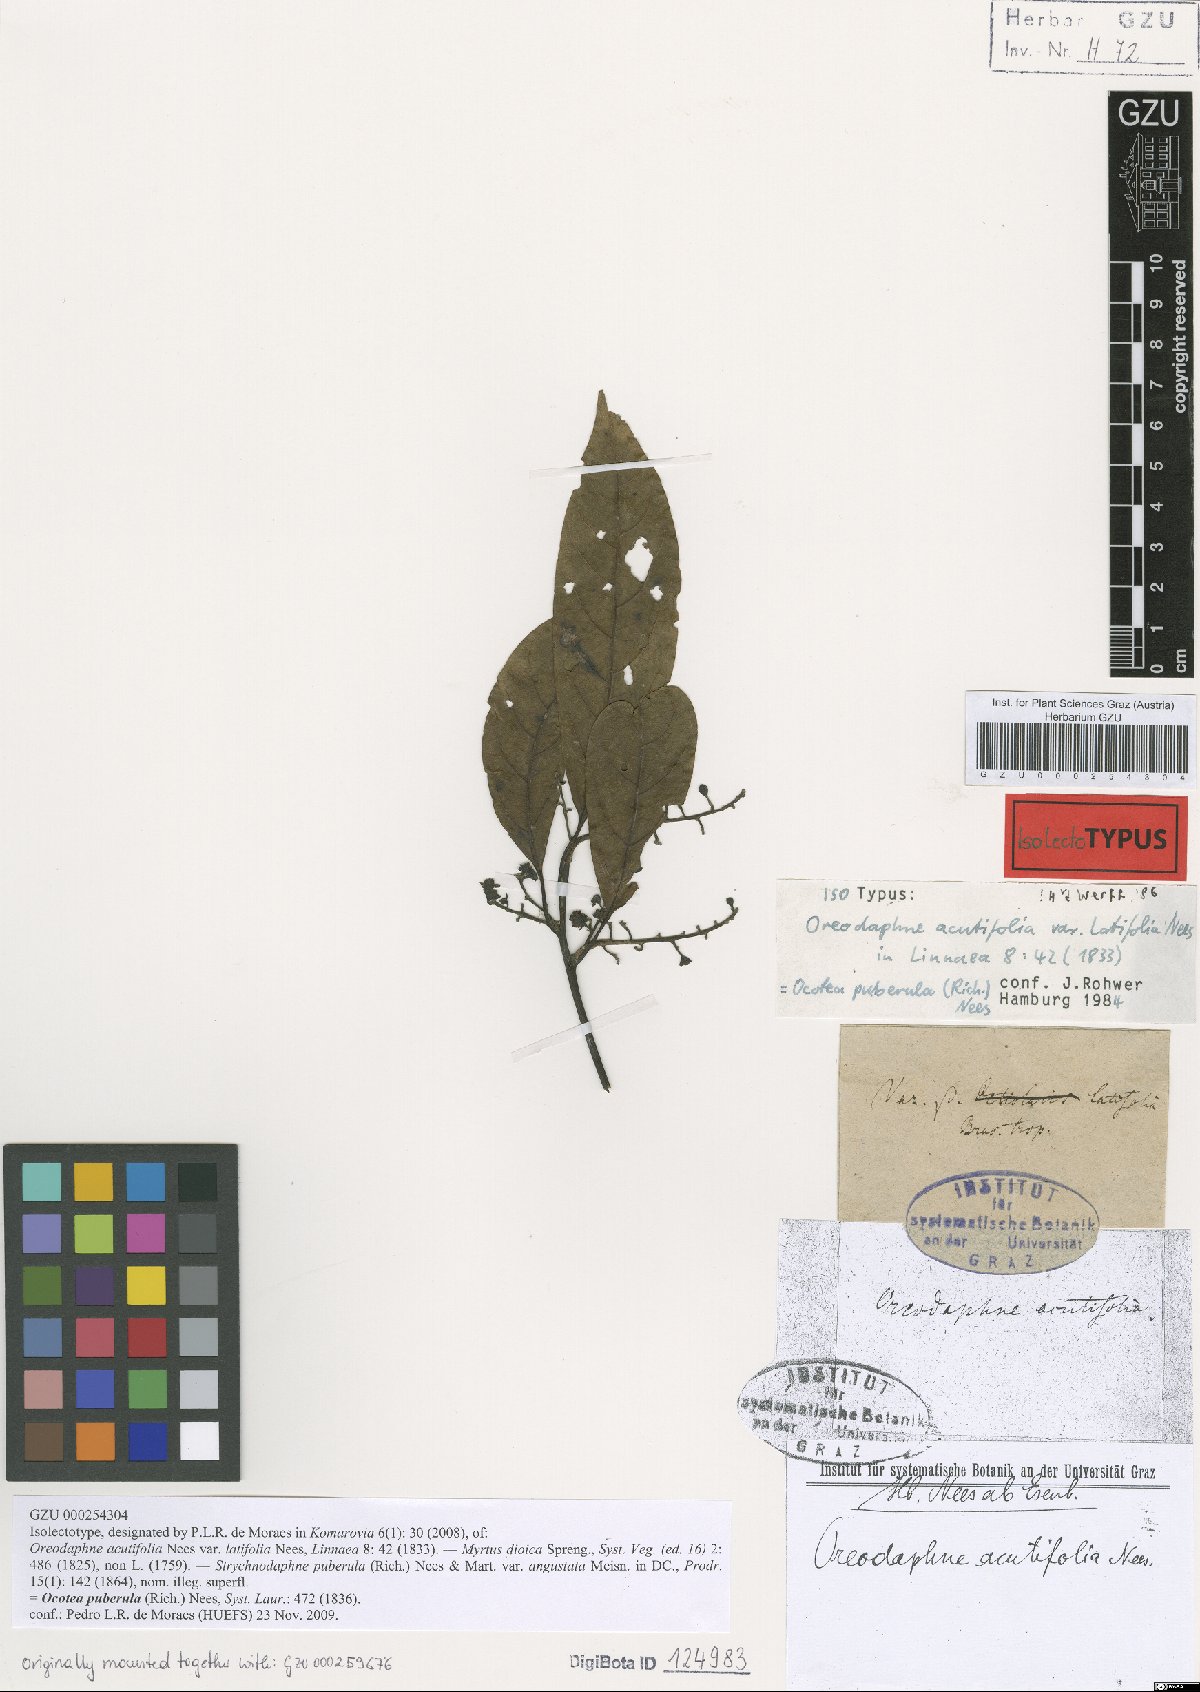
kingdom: Plantae
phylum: Tracheophyta
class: Magnoliopsida
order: Laurales
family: Lauraceae
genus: Ocotea
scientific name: Ocotea puberula
